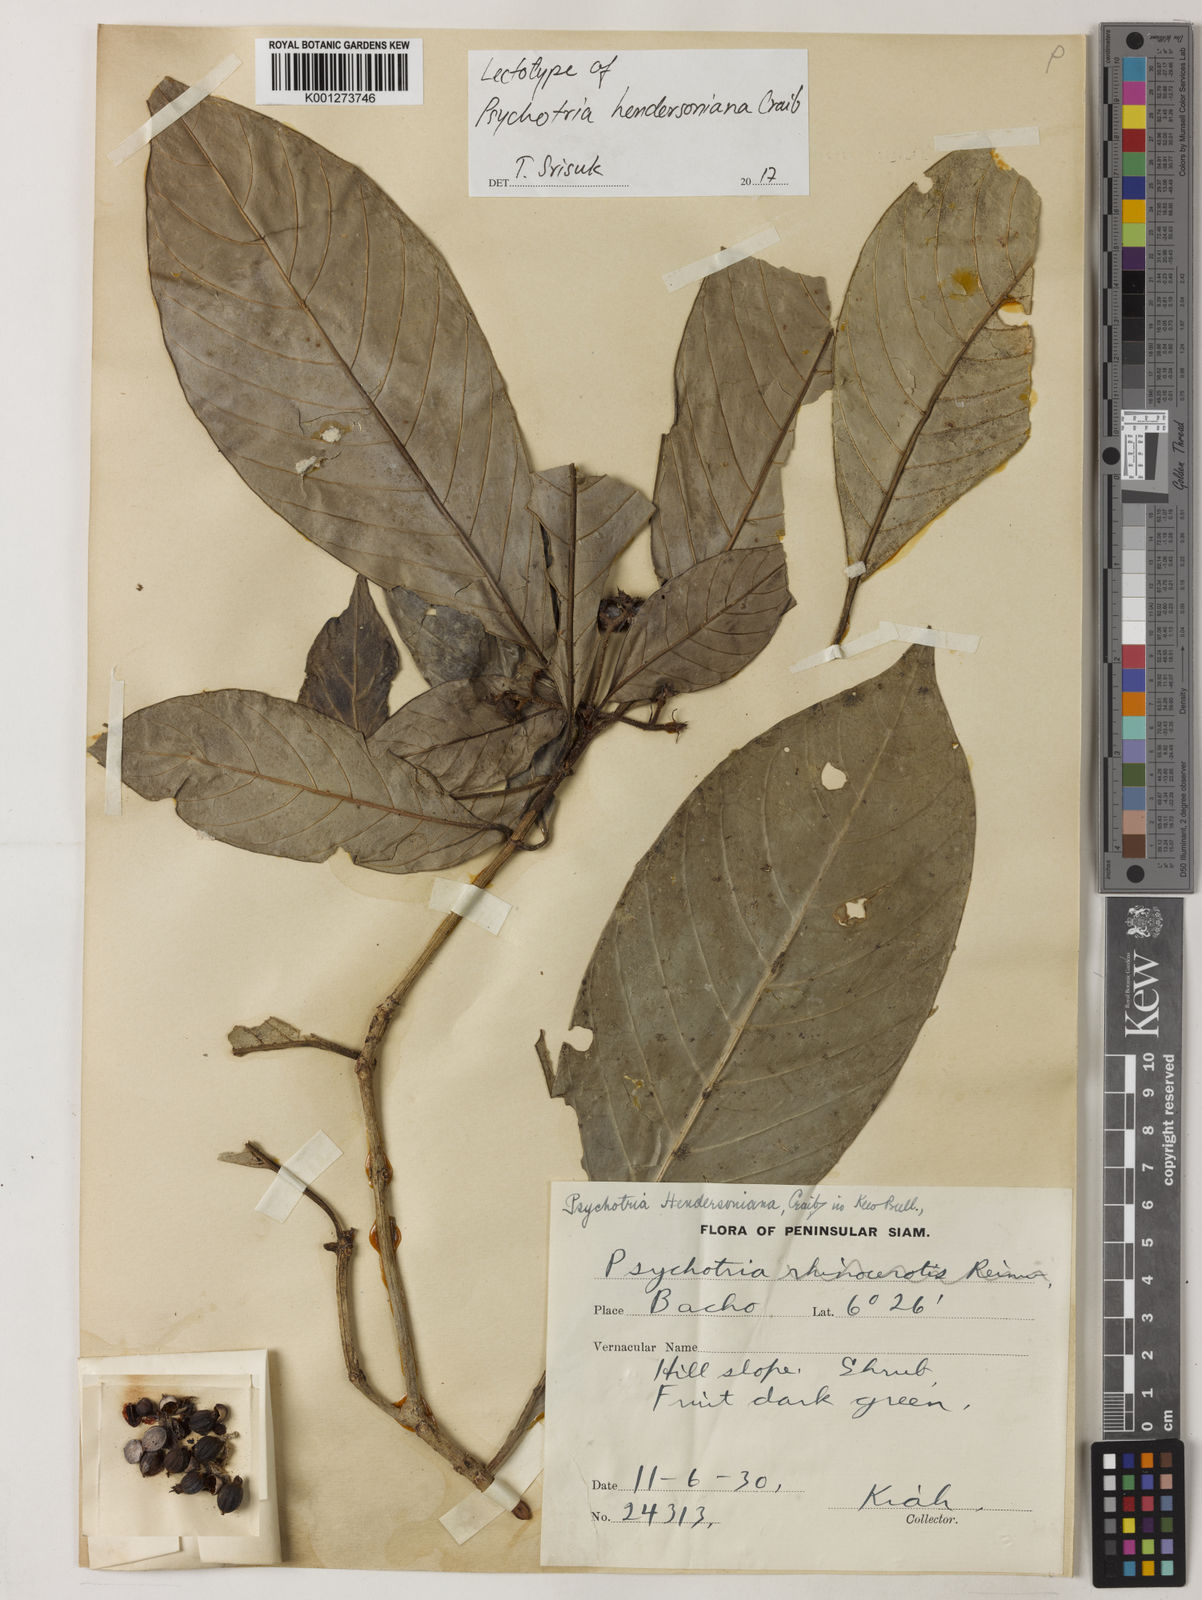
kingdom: Plantae
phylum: Tracheophyta
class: Magnoliopsida
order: Gentianales
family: Rubiaceae
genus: Psychotria
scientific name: Psychotria hendersoniana
